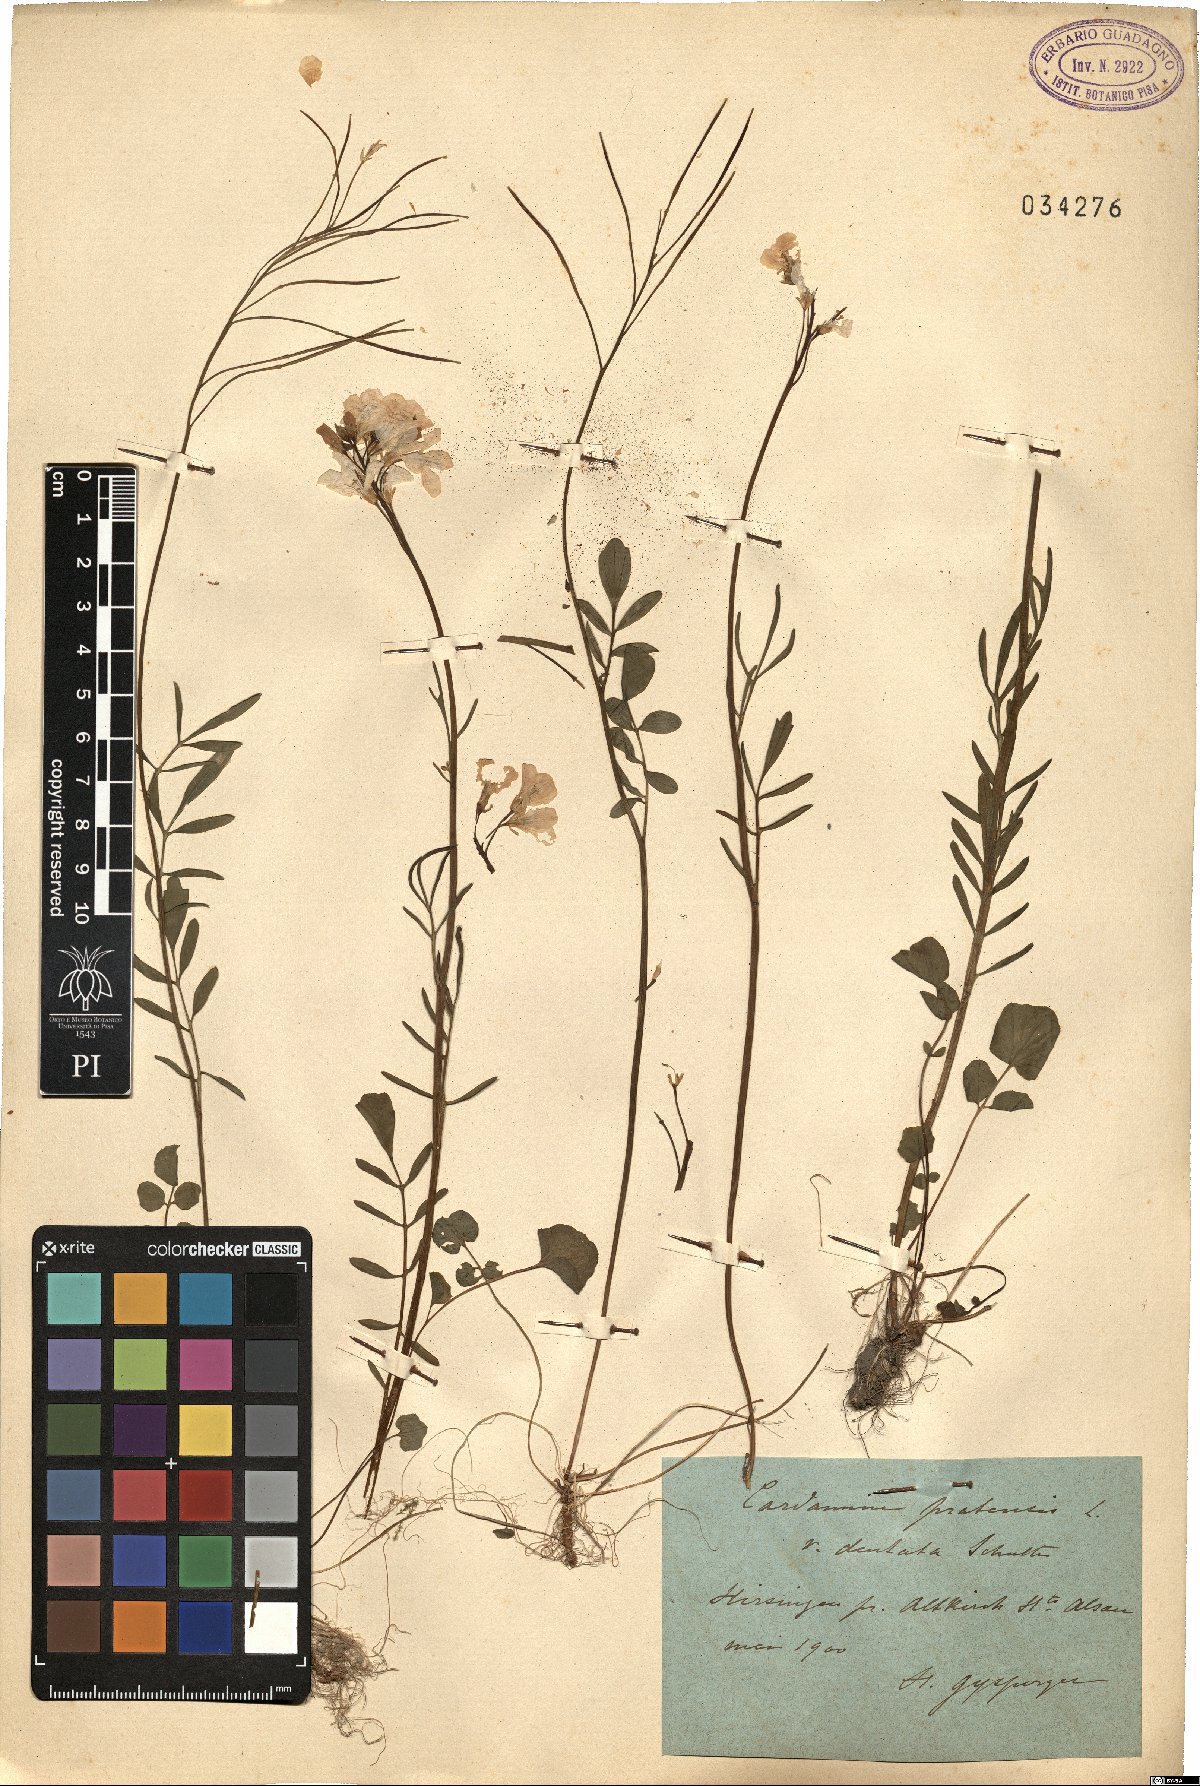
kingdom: Plantae
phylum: Tracheophyta
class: Magnoliopsida
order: Brassicales
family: Brassicaceae
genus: Cardamine
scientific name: Cardamine dentata
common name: Toothed bittercress
